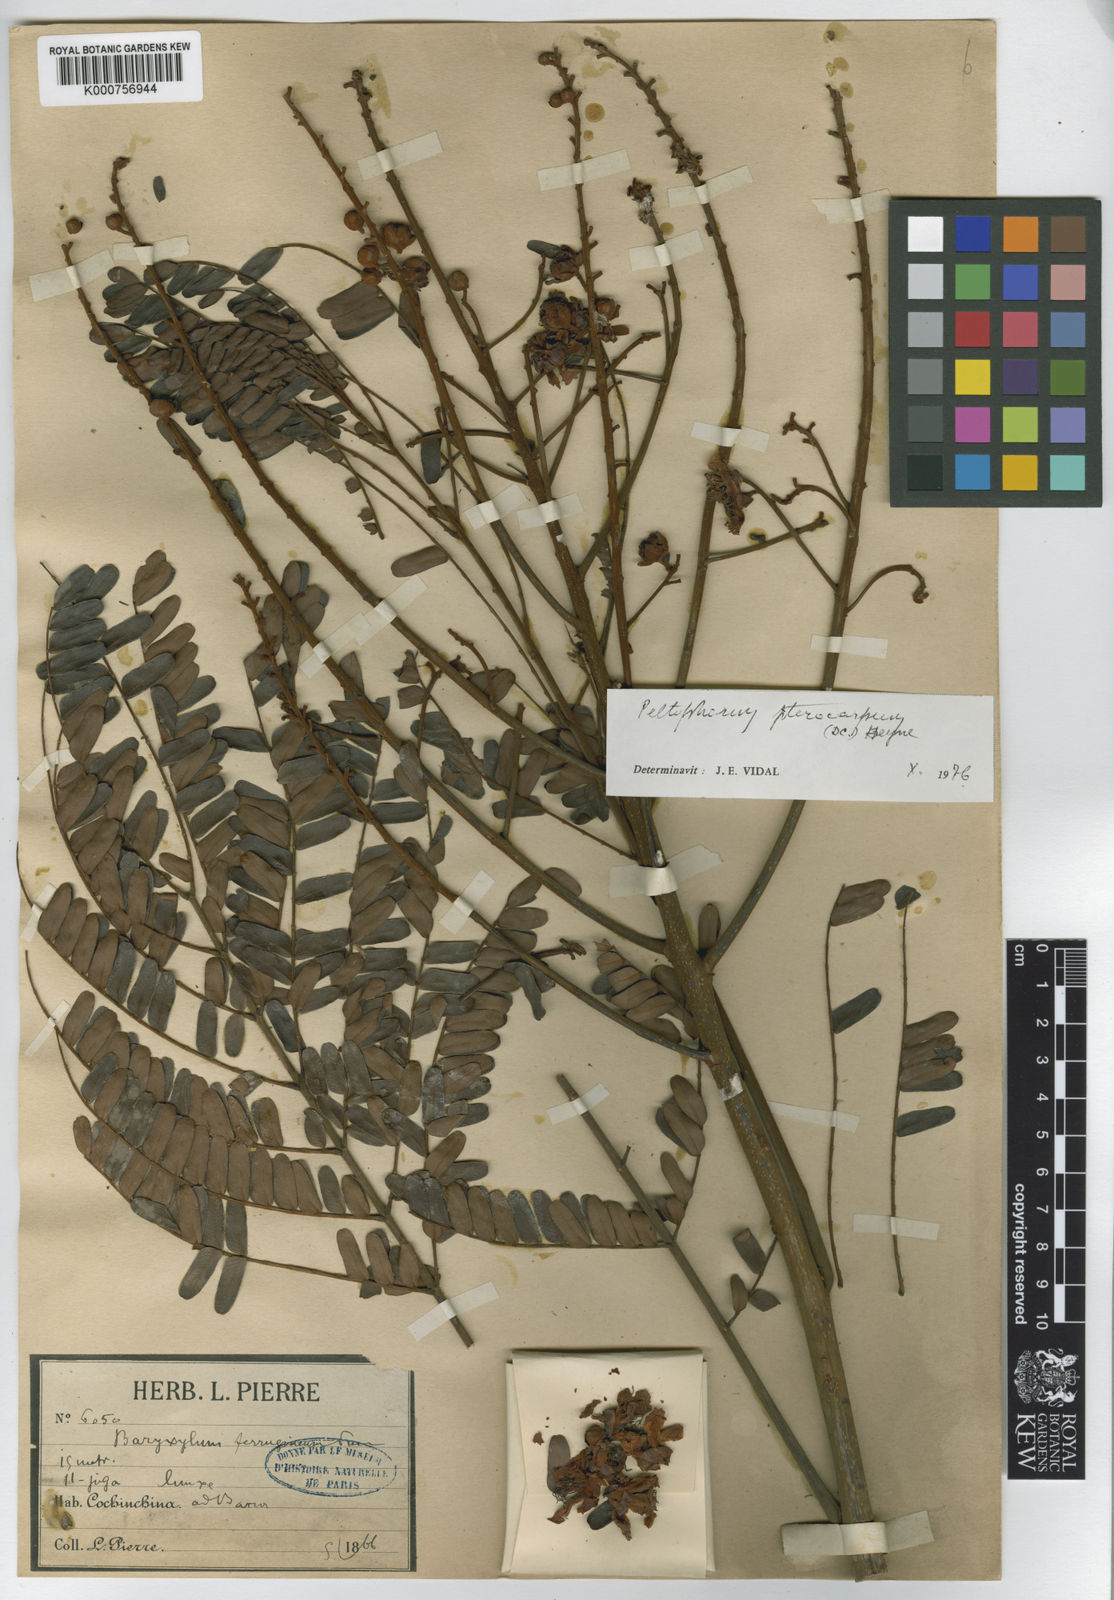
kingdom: Plantae
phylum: Tracheophyta
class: Magnoliopsida
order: Fabales
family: Fabaceae
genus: Peltophorum
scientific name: Peltophorum pterocarpum
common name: Yellow flame
